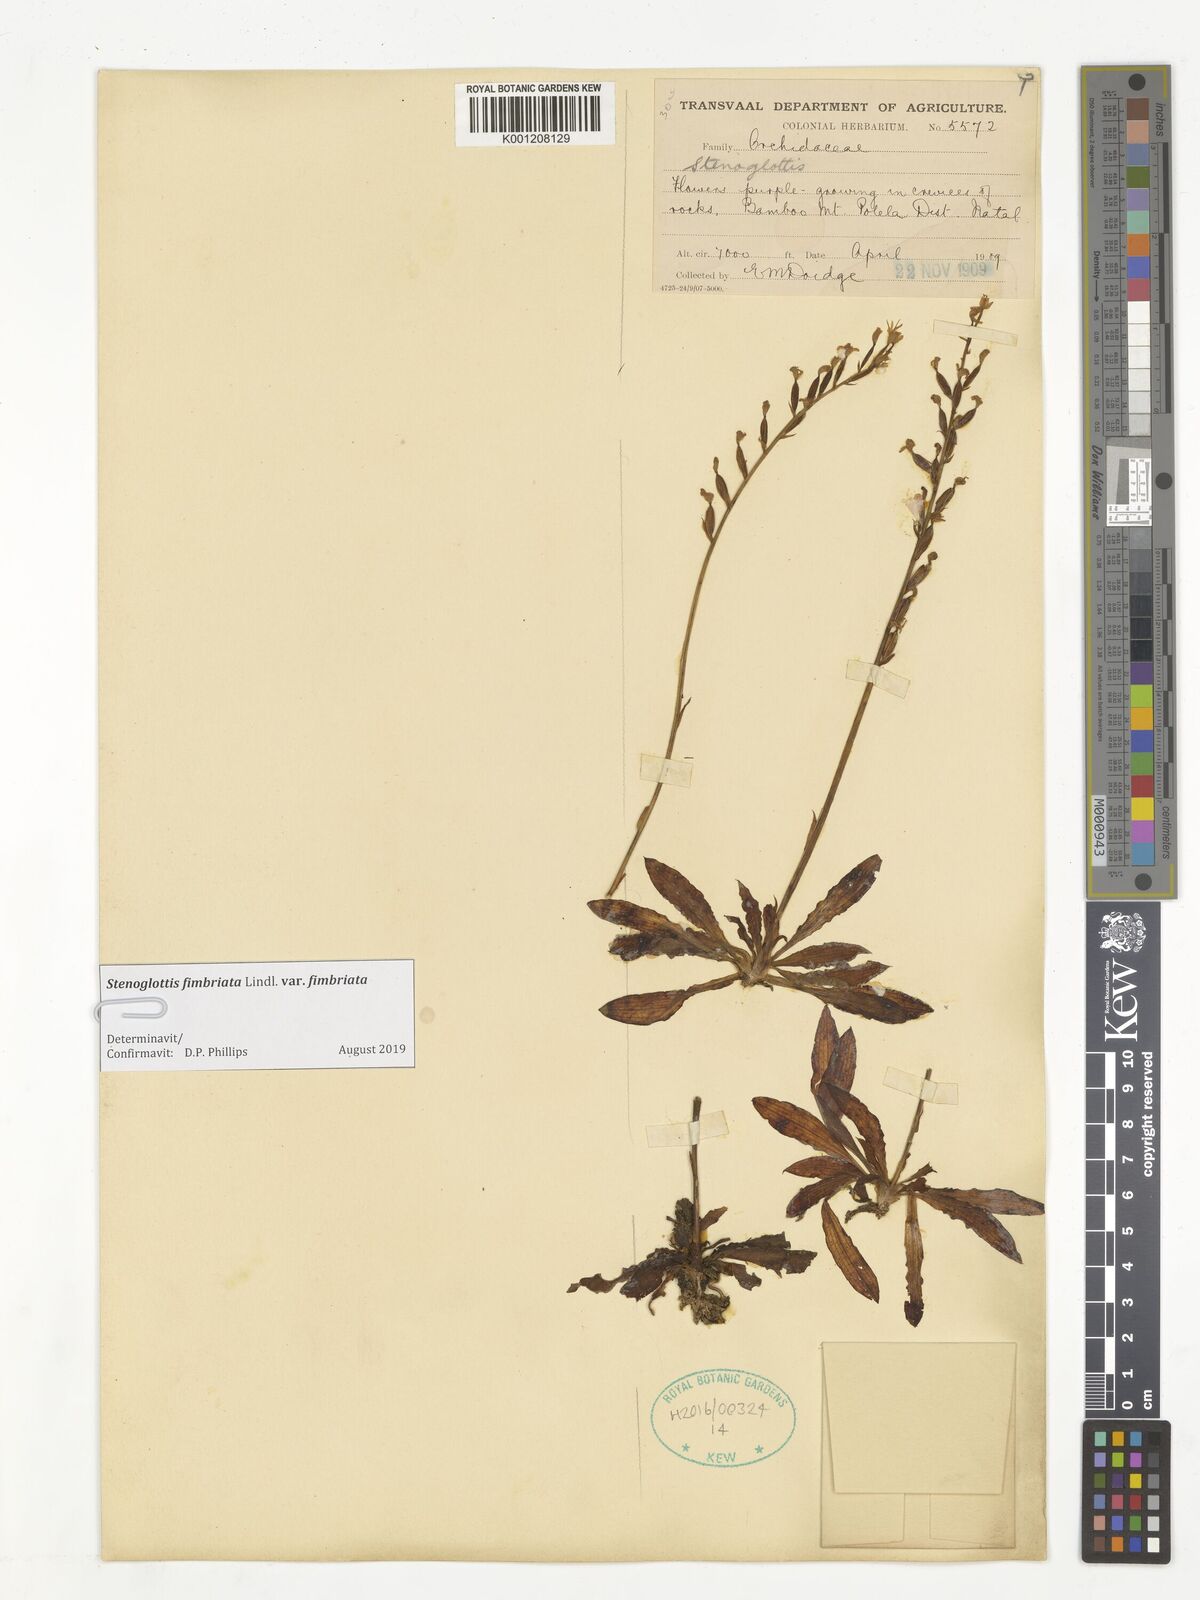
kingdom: Plantae
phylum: Tracheophyta
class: Liliopsida
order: Asparagales
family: Orchidaceae
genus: Stenoglottis
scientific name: Stenoglottis fimbriata
